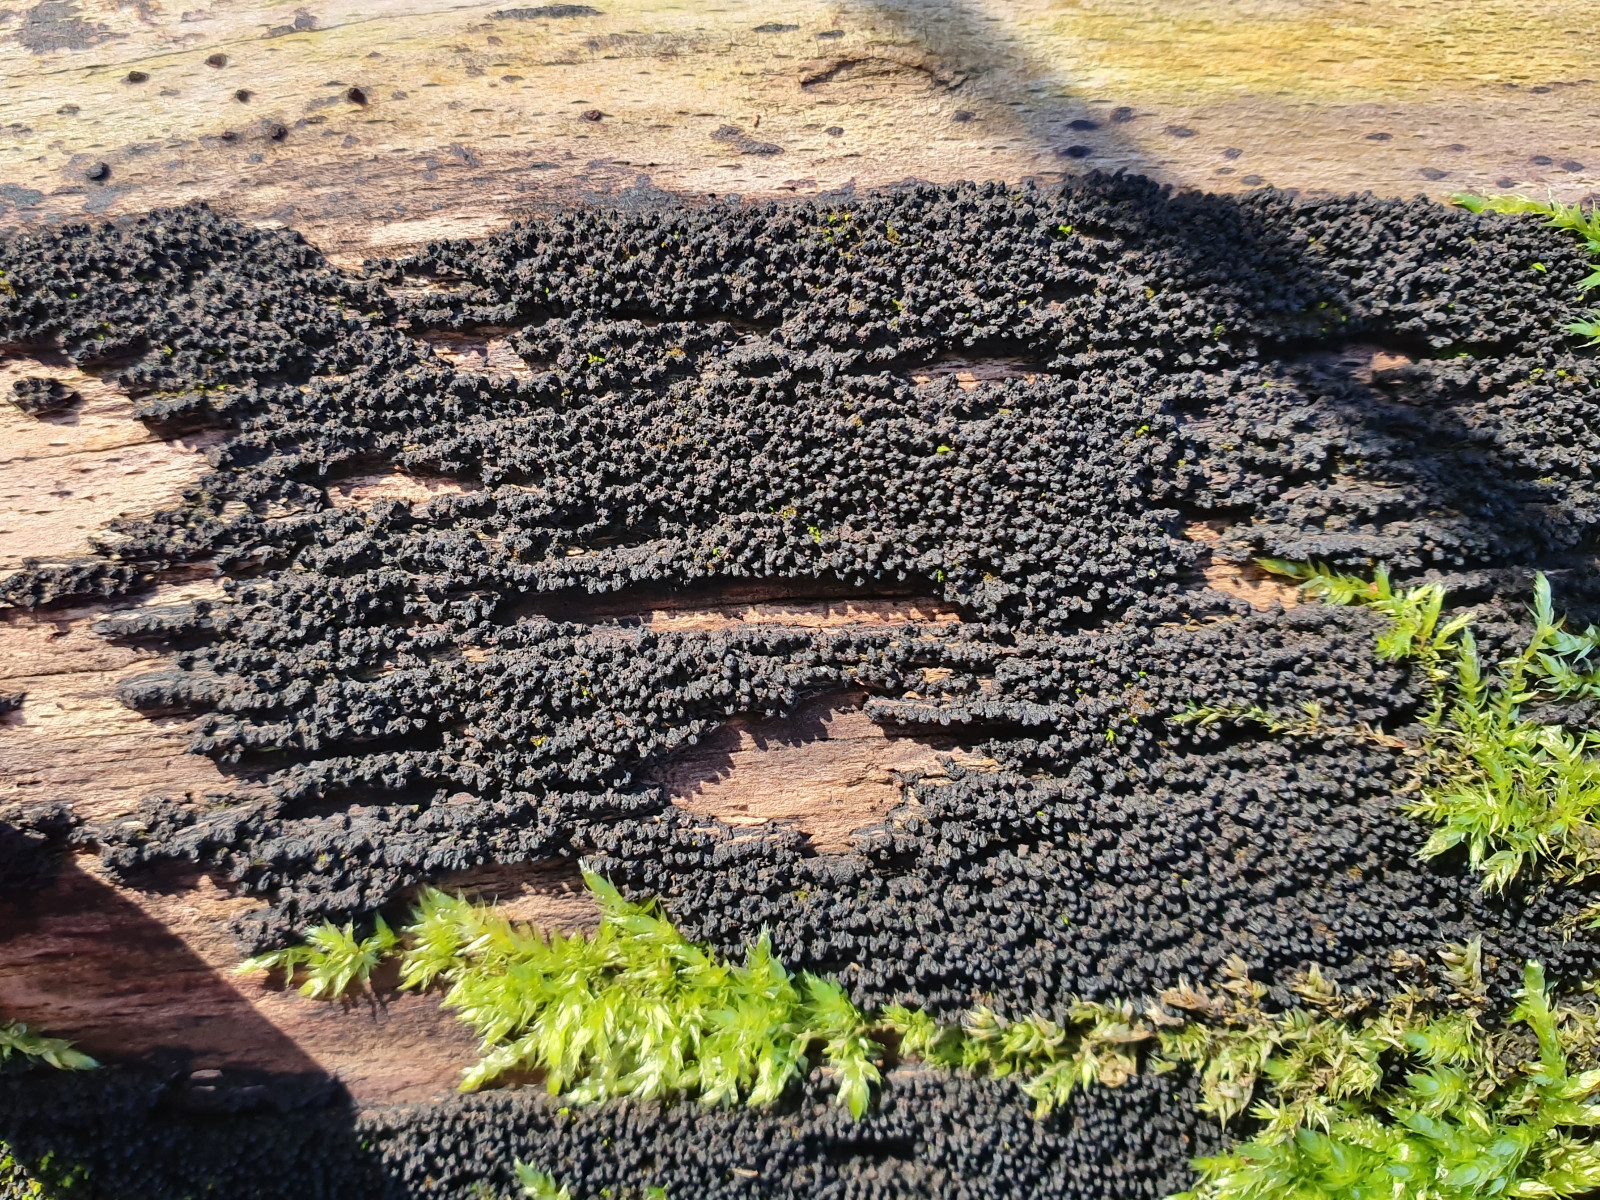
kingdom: Fungi
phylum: Ascomycota
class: Sordariomycetes
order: Xylariales
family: Diatrypaceae
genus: Eutypa
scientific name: Eutypa spinosa
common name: grov kulskorpe
